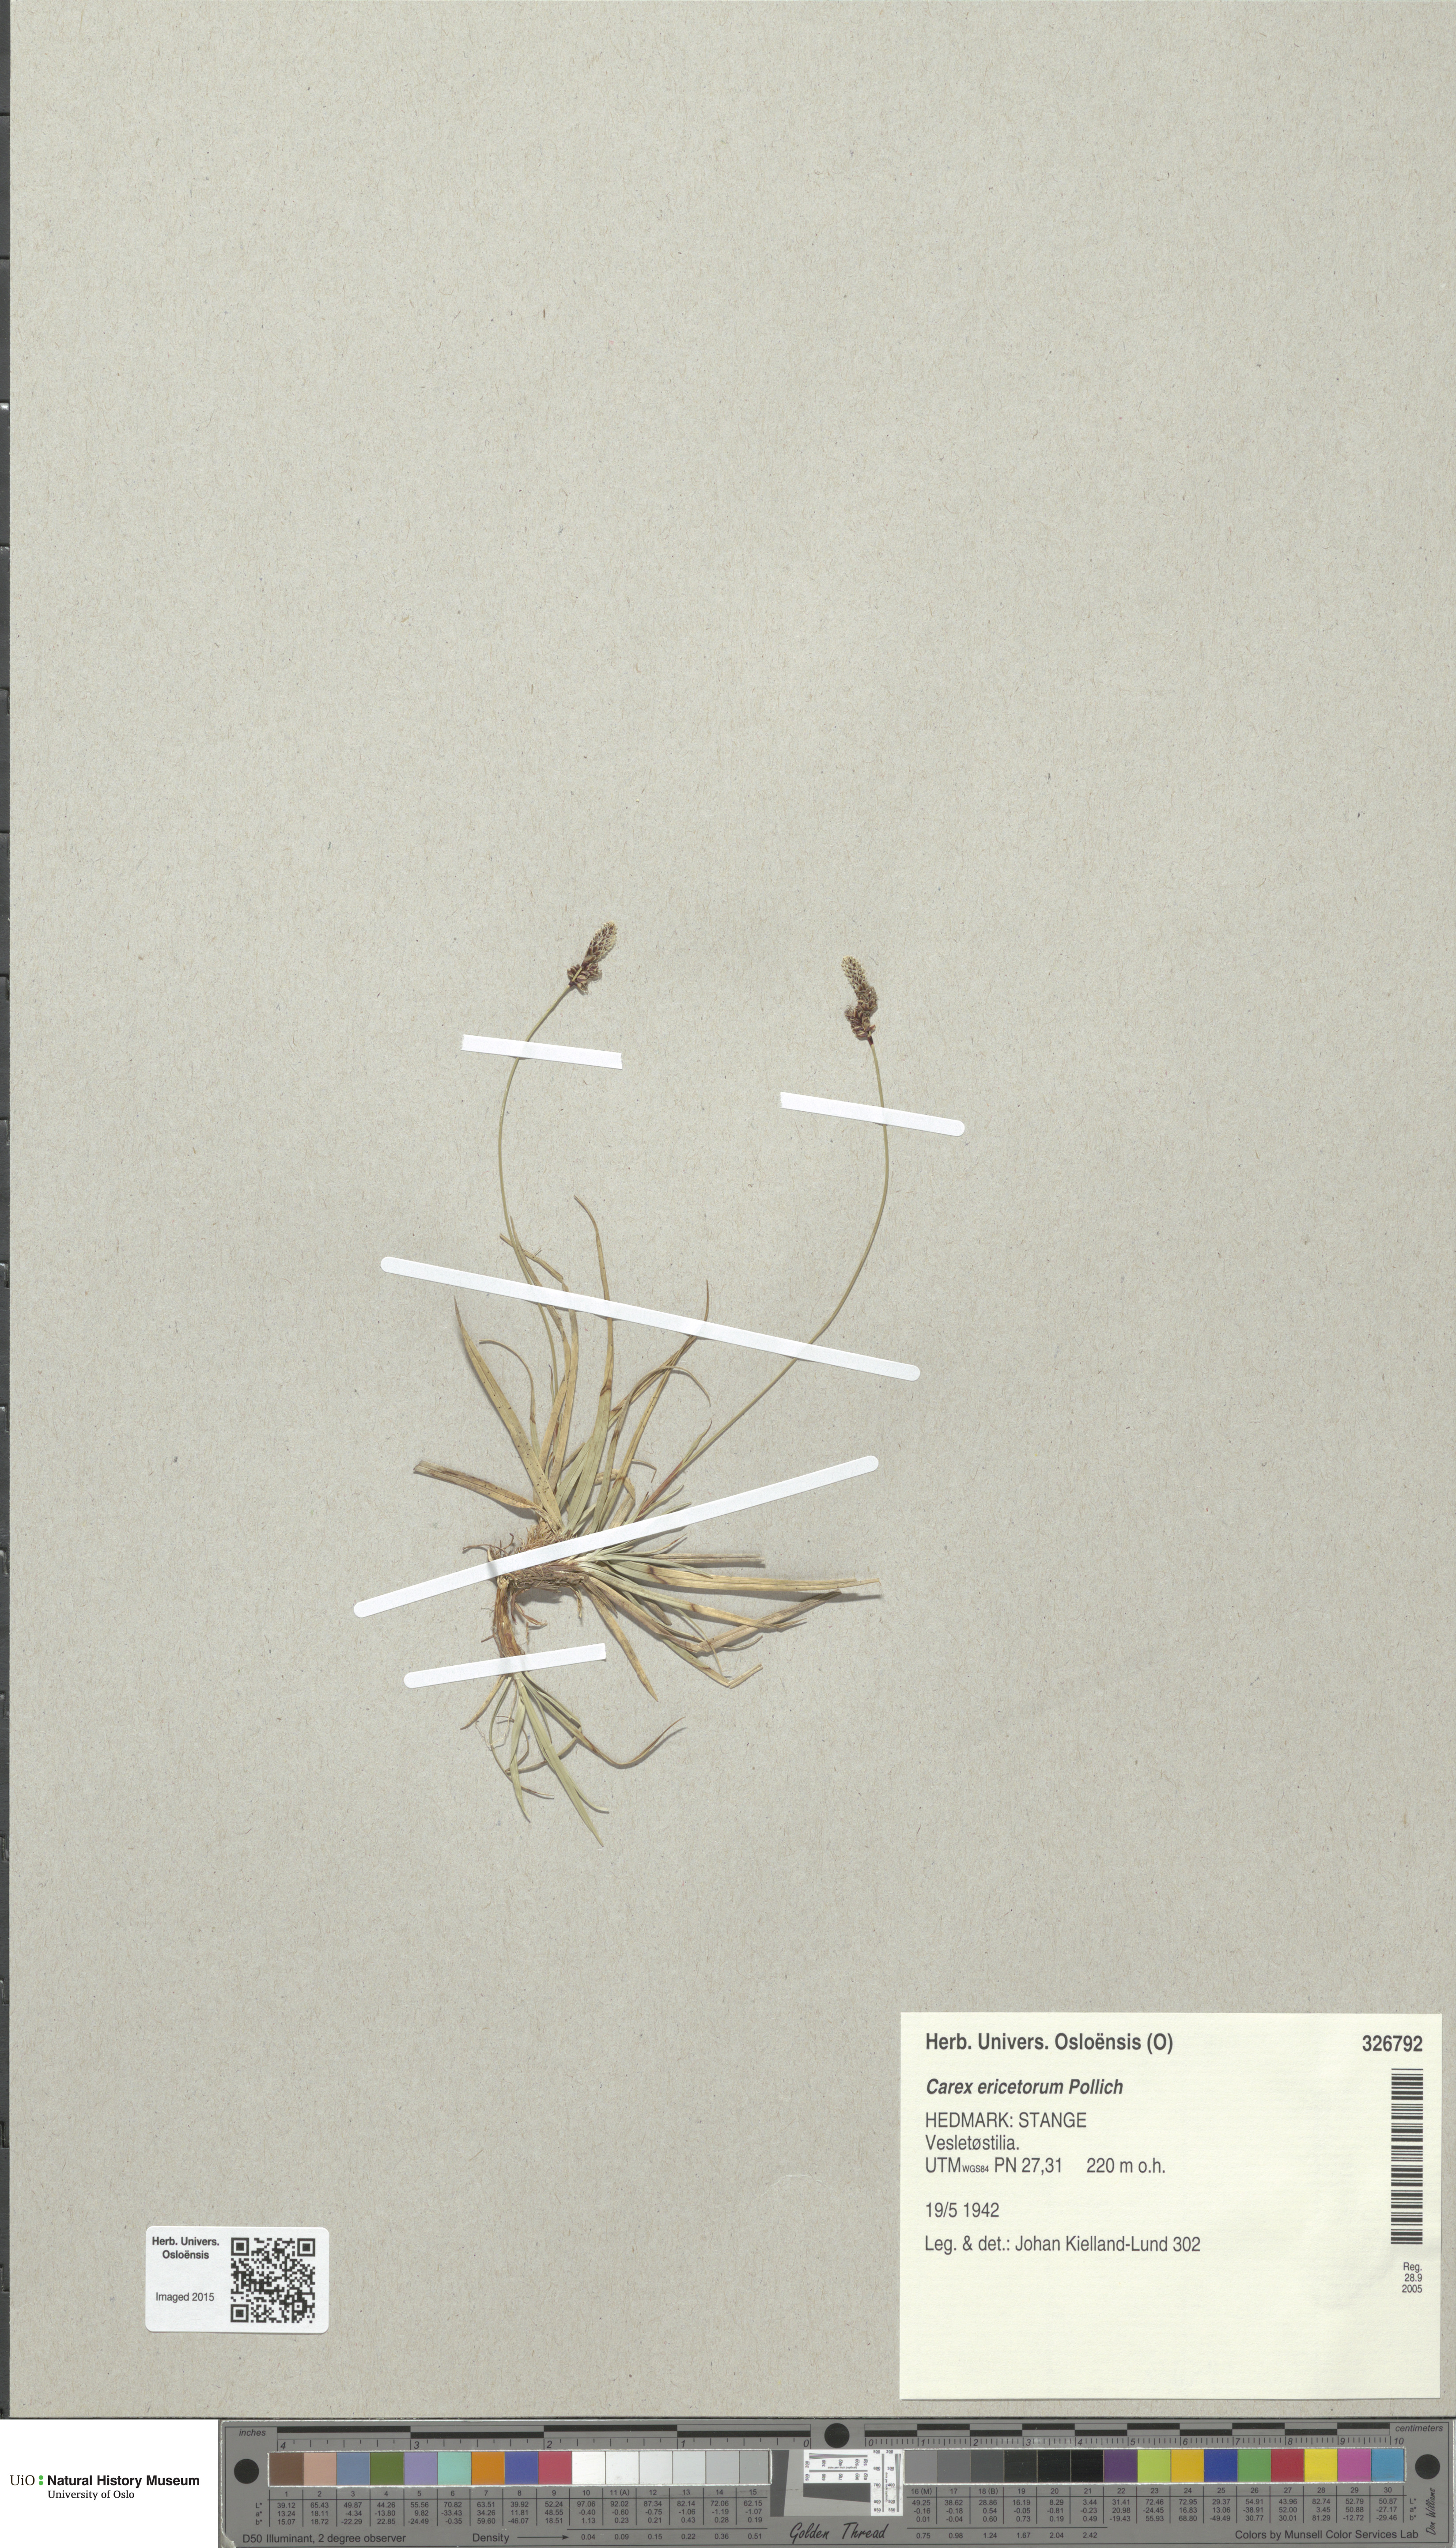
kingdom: Plantae
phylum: Tracheophyta
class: Liliopsida
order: Poales
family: Cyperaceae
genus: Carex
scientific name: Carex ericetorum
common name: Rare spring-sedge
